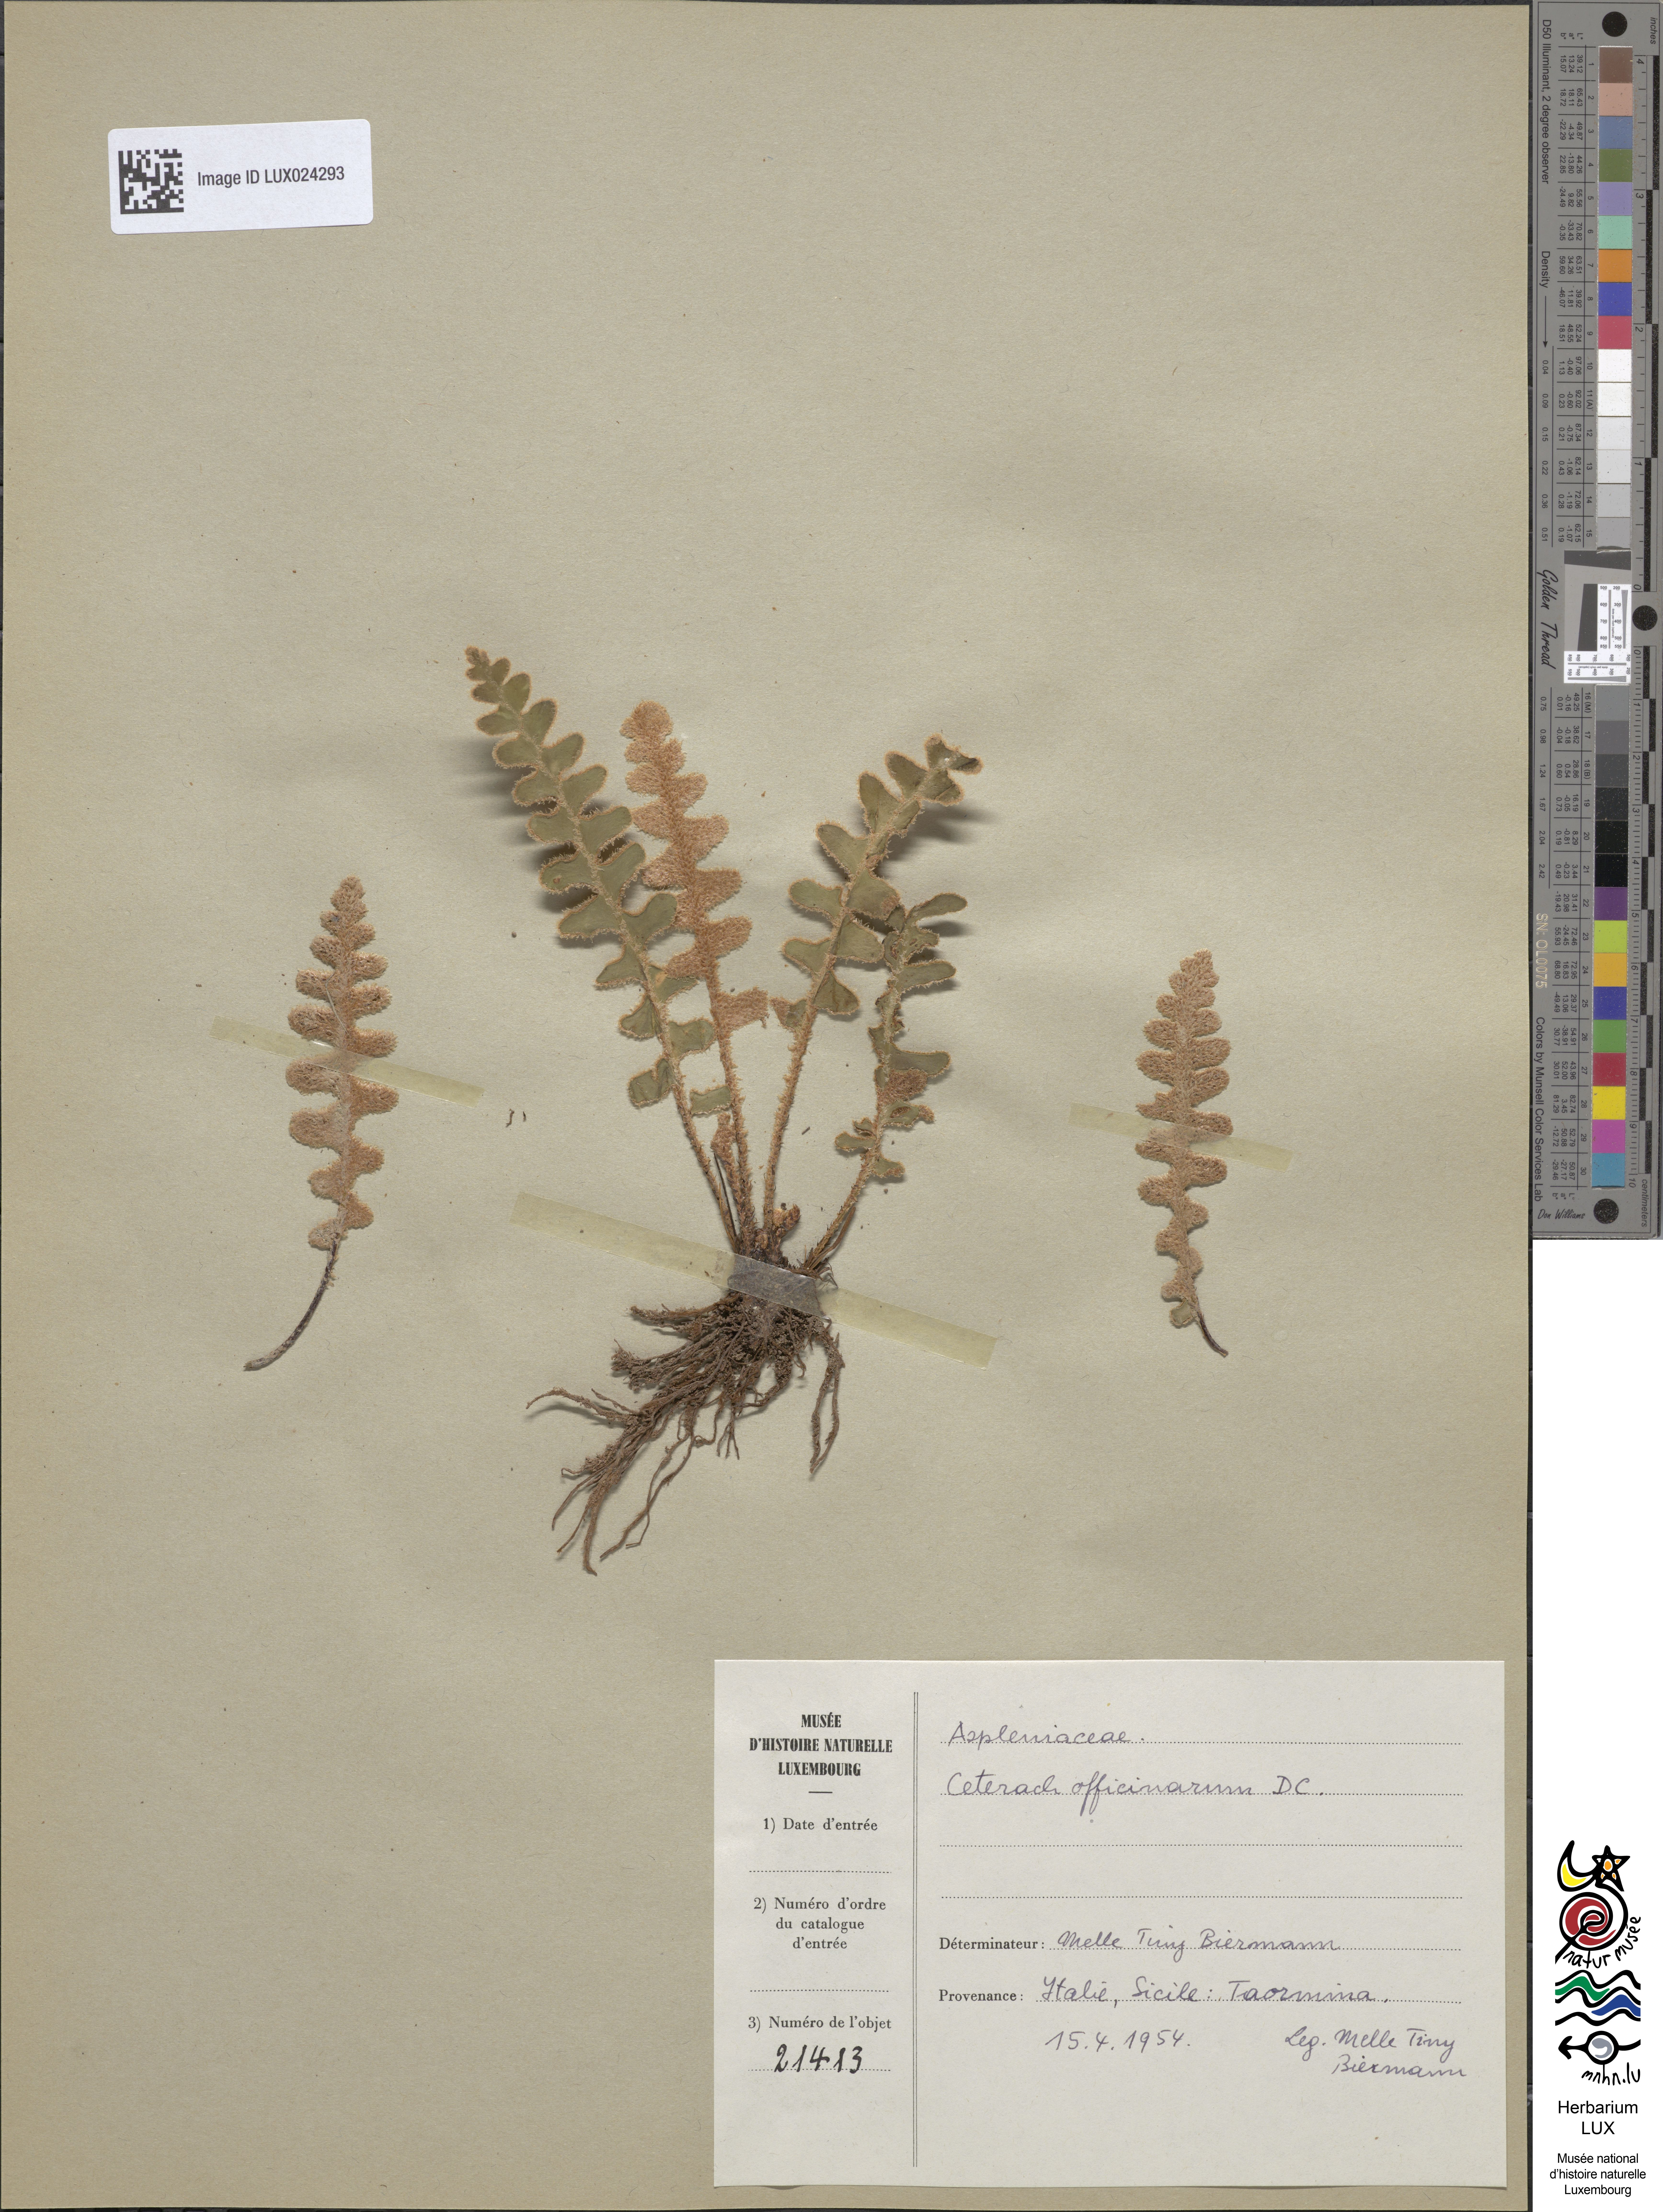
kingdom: Plantae
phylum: Tracheophyta
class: Polypodiopsida
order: Polypodiales
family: Aspleniaceae
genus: Asplenium
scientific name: Asplenium ceterach
